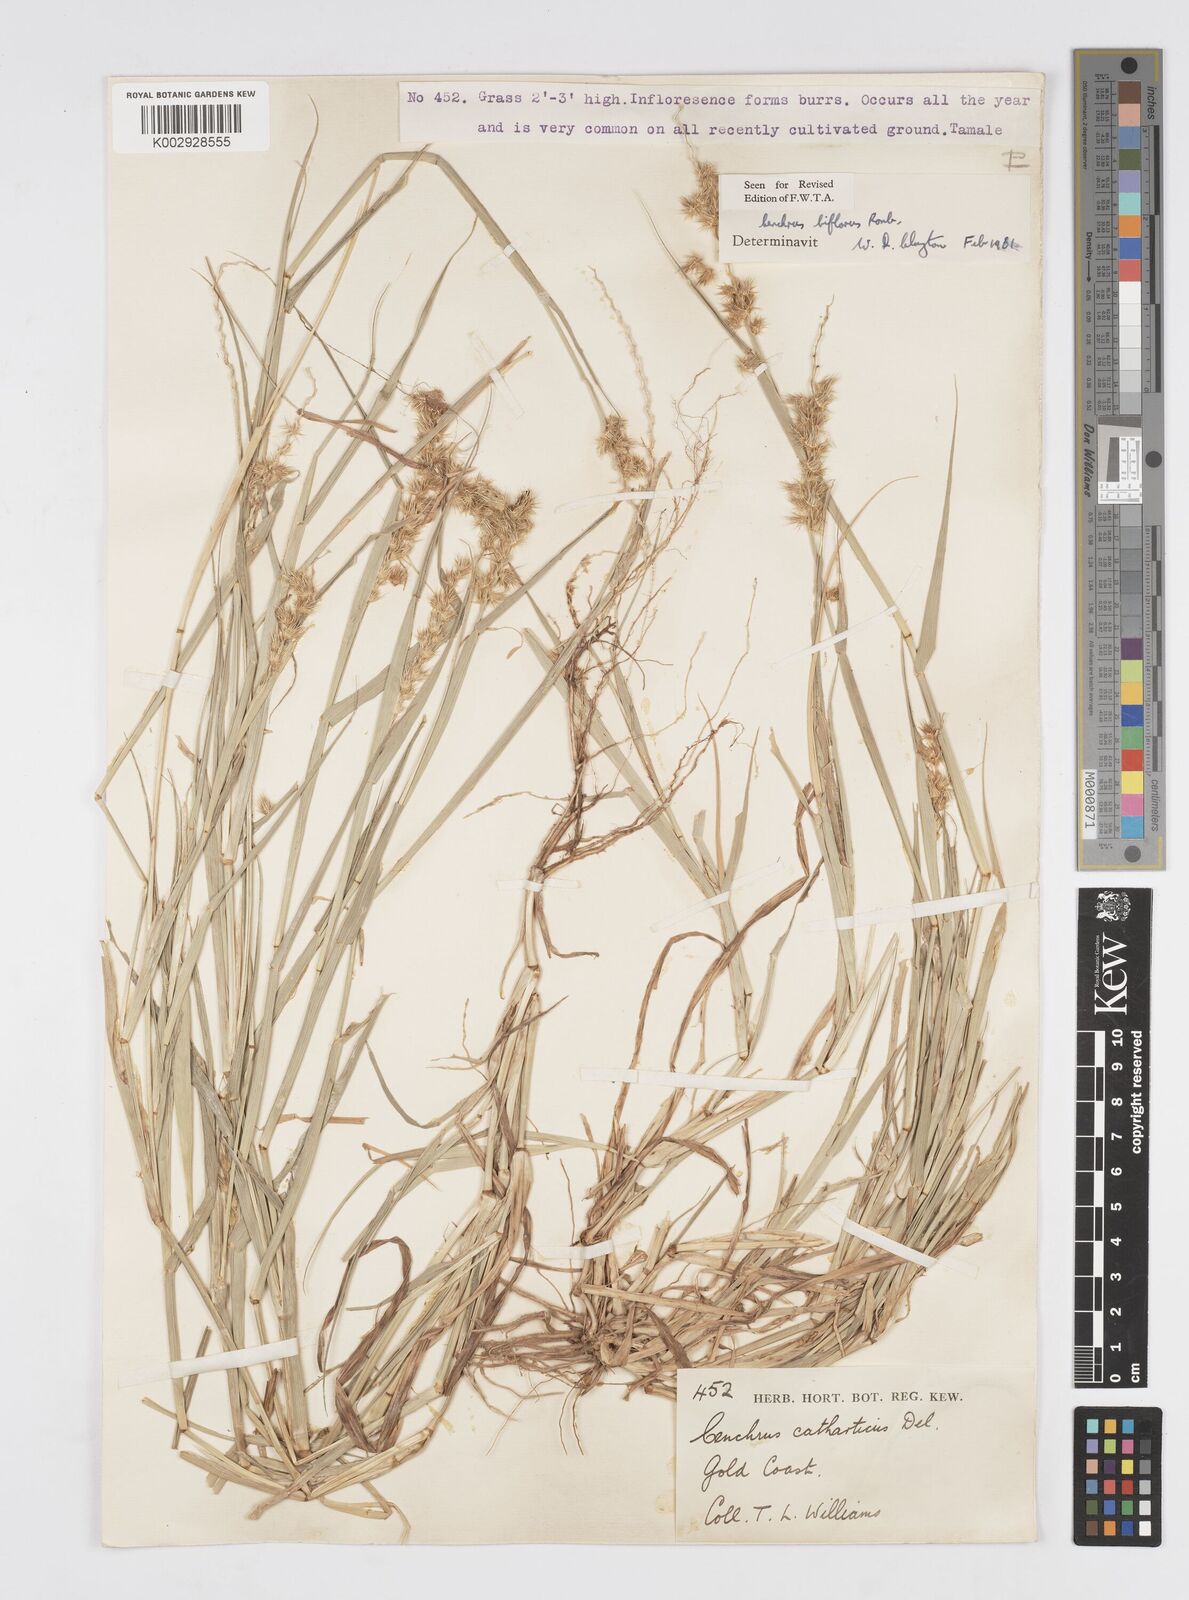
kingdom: Plantae
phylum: Tracheophyta
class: Liliopsida
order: Poales
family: Poaceae
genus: Cenchrus
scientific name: Cenchrus biflorus
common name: Indian sandbur
